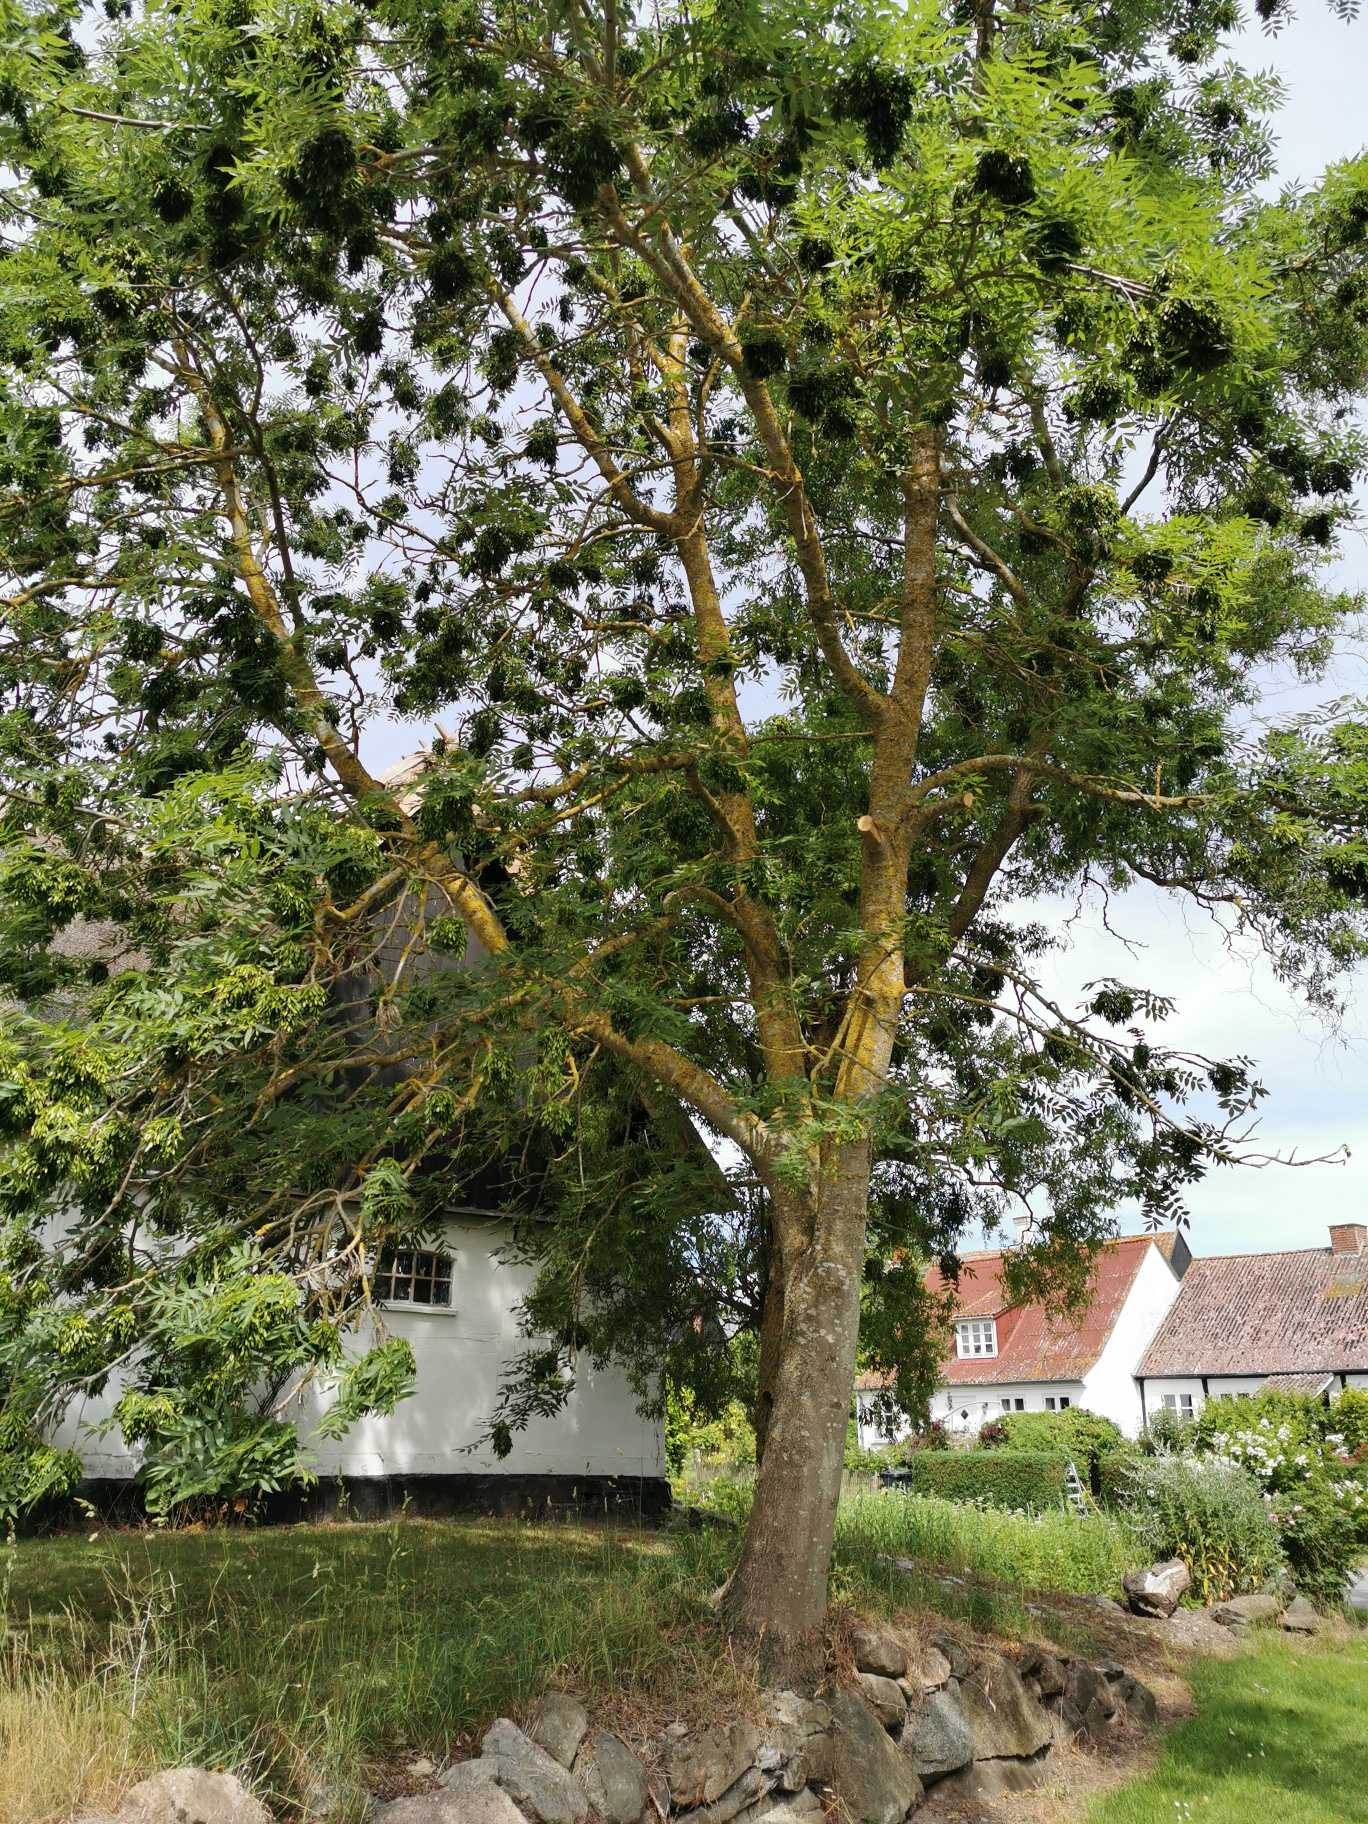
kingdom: Plantae
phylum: Tracheophyta
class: Magnoliopsida
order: Lamiales
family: Oleaceae
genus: Fraxinus
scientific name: Fraxinus excelsior
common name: Ask
